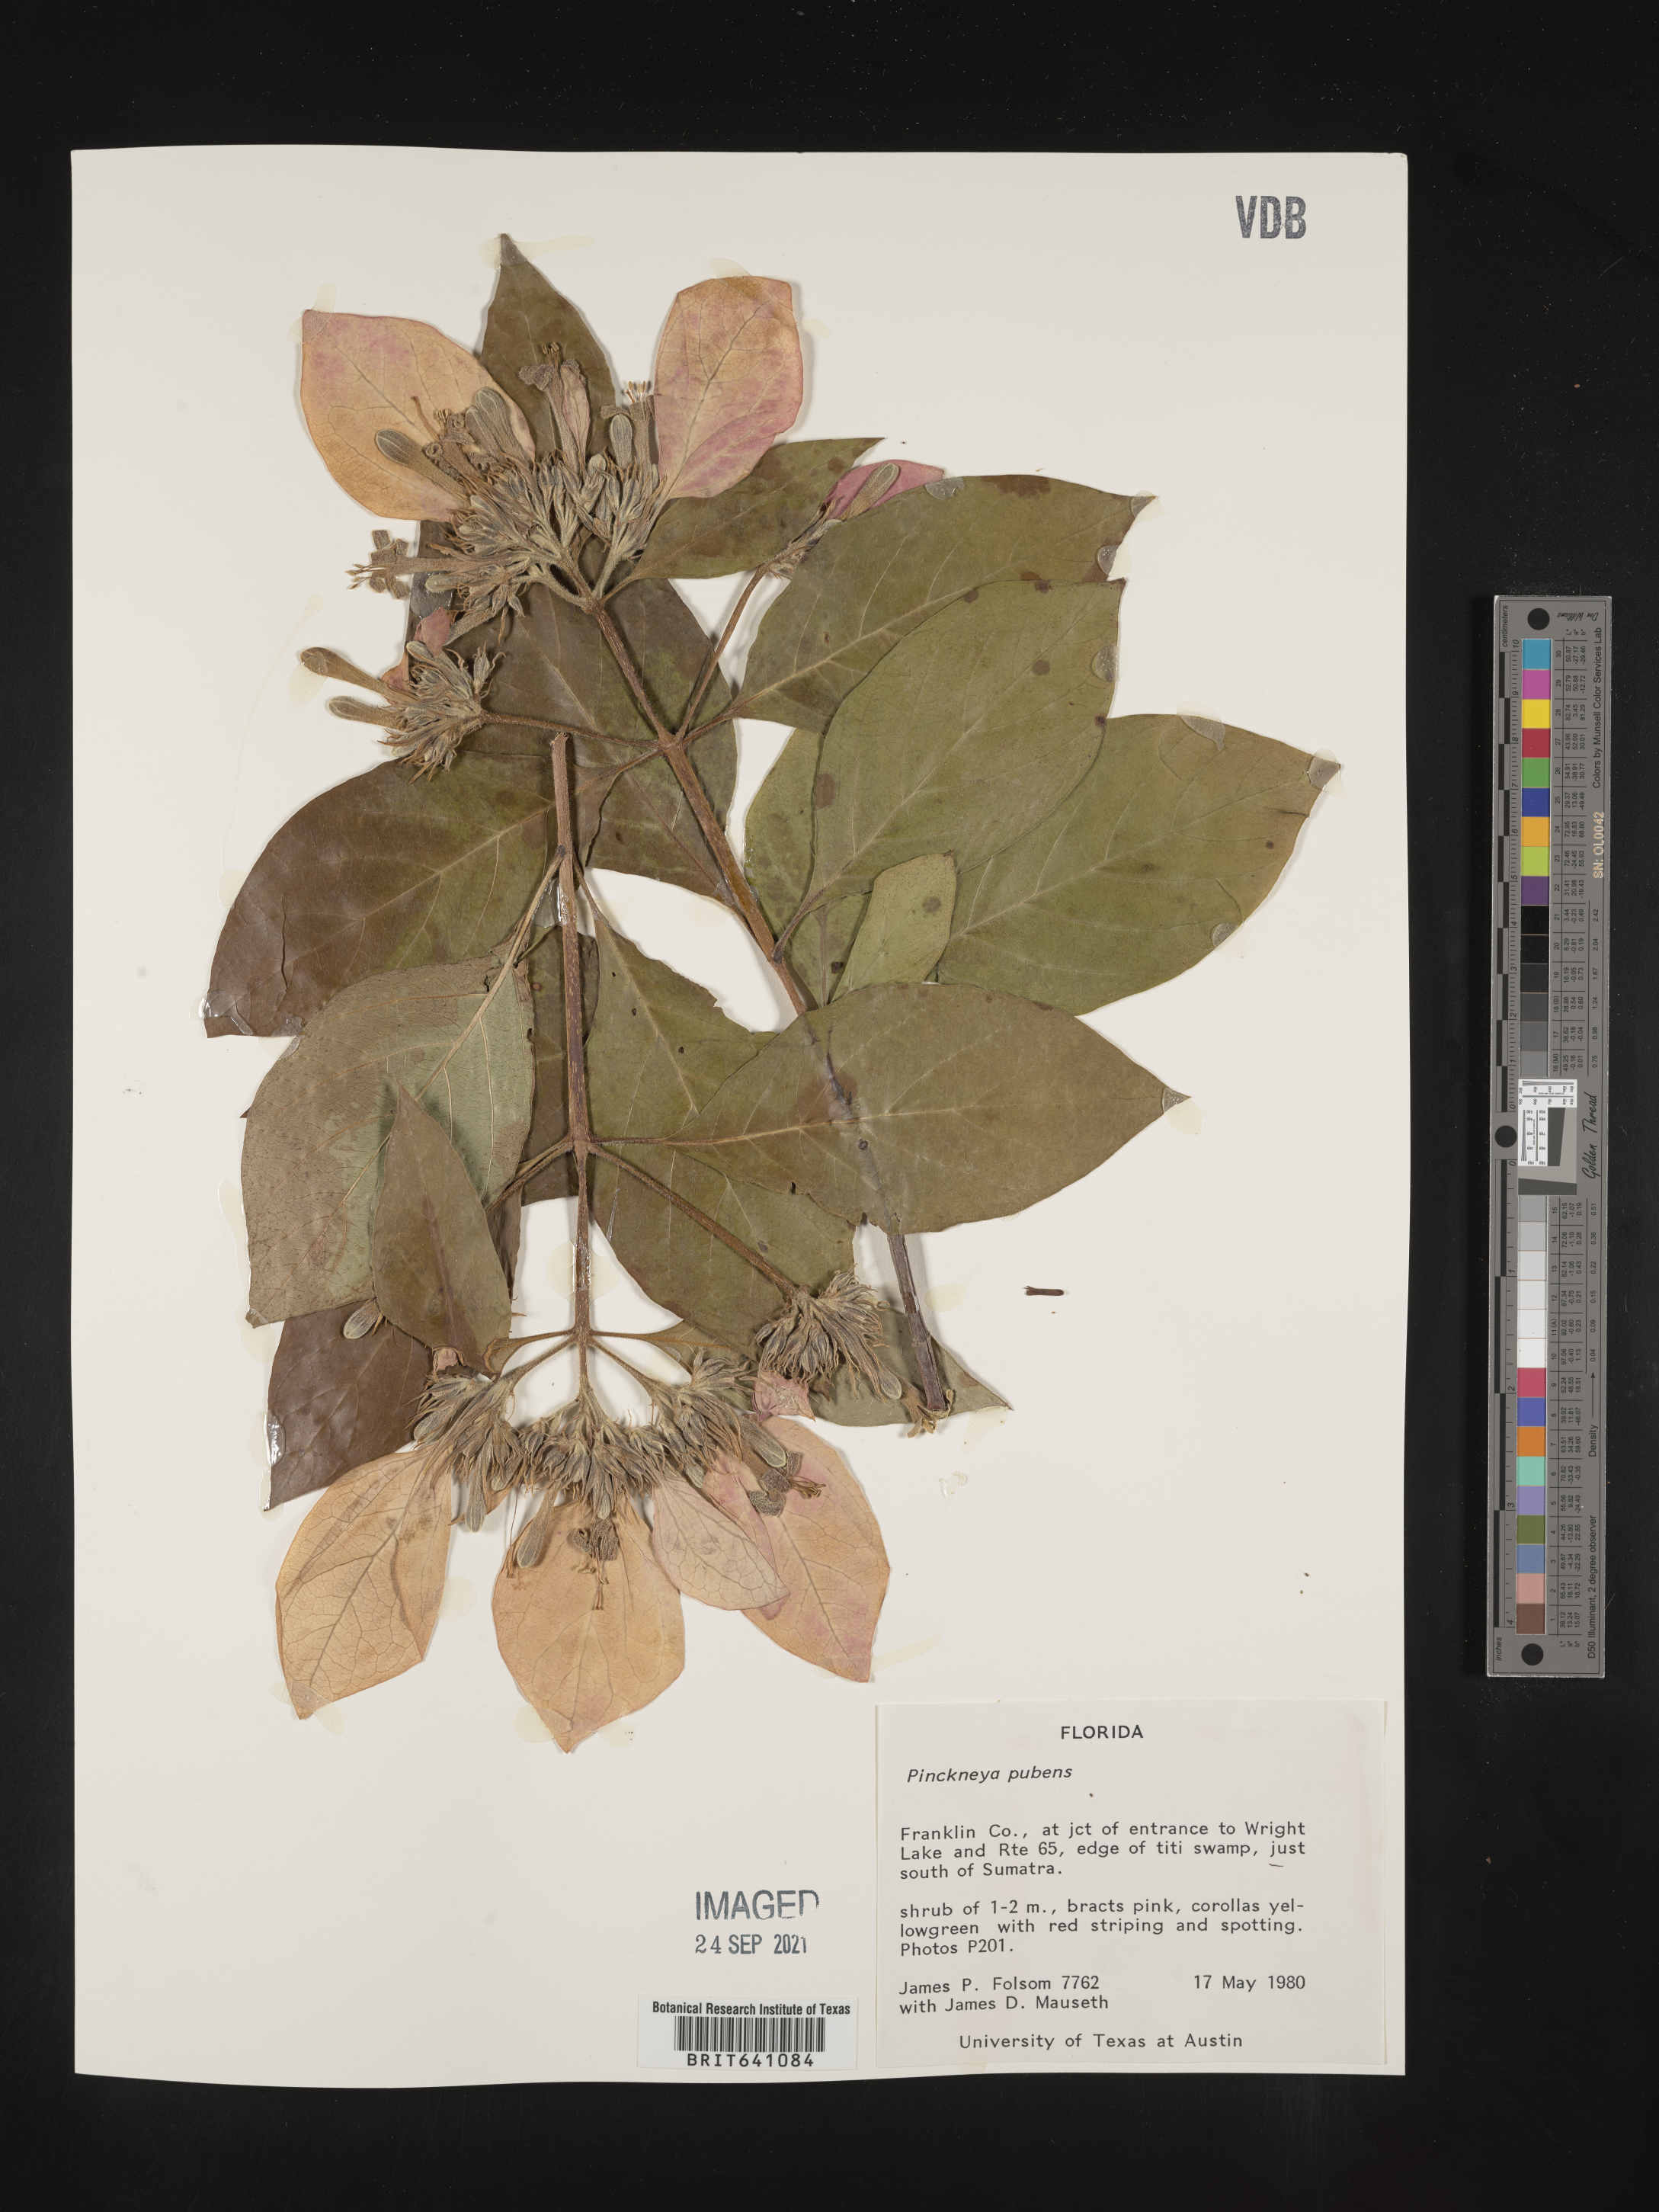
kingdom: Plantae
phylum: Tracheophyta
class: Magnoliopsida
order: Gentianales
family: Rubiaceae
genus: Pinckneya
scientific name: Pinckneya pubens
